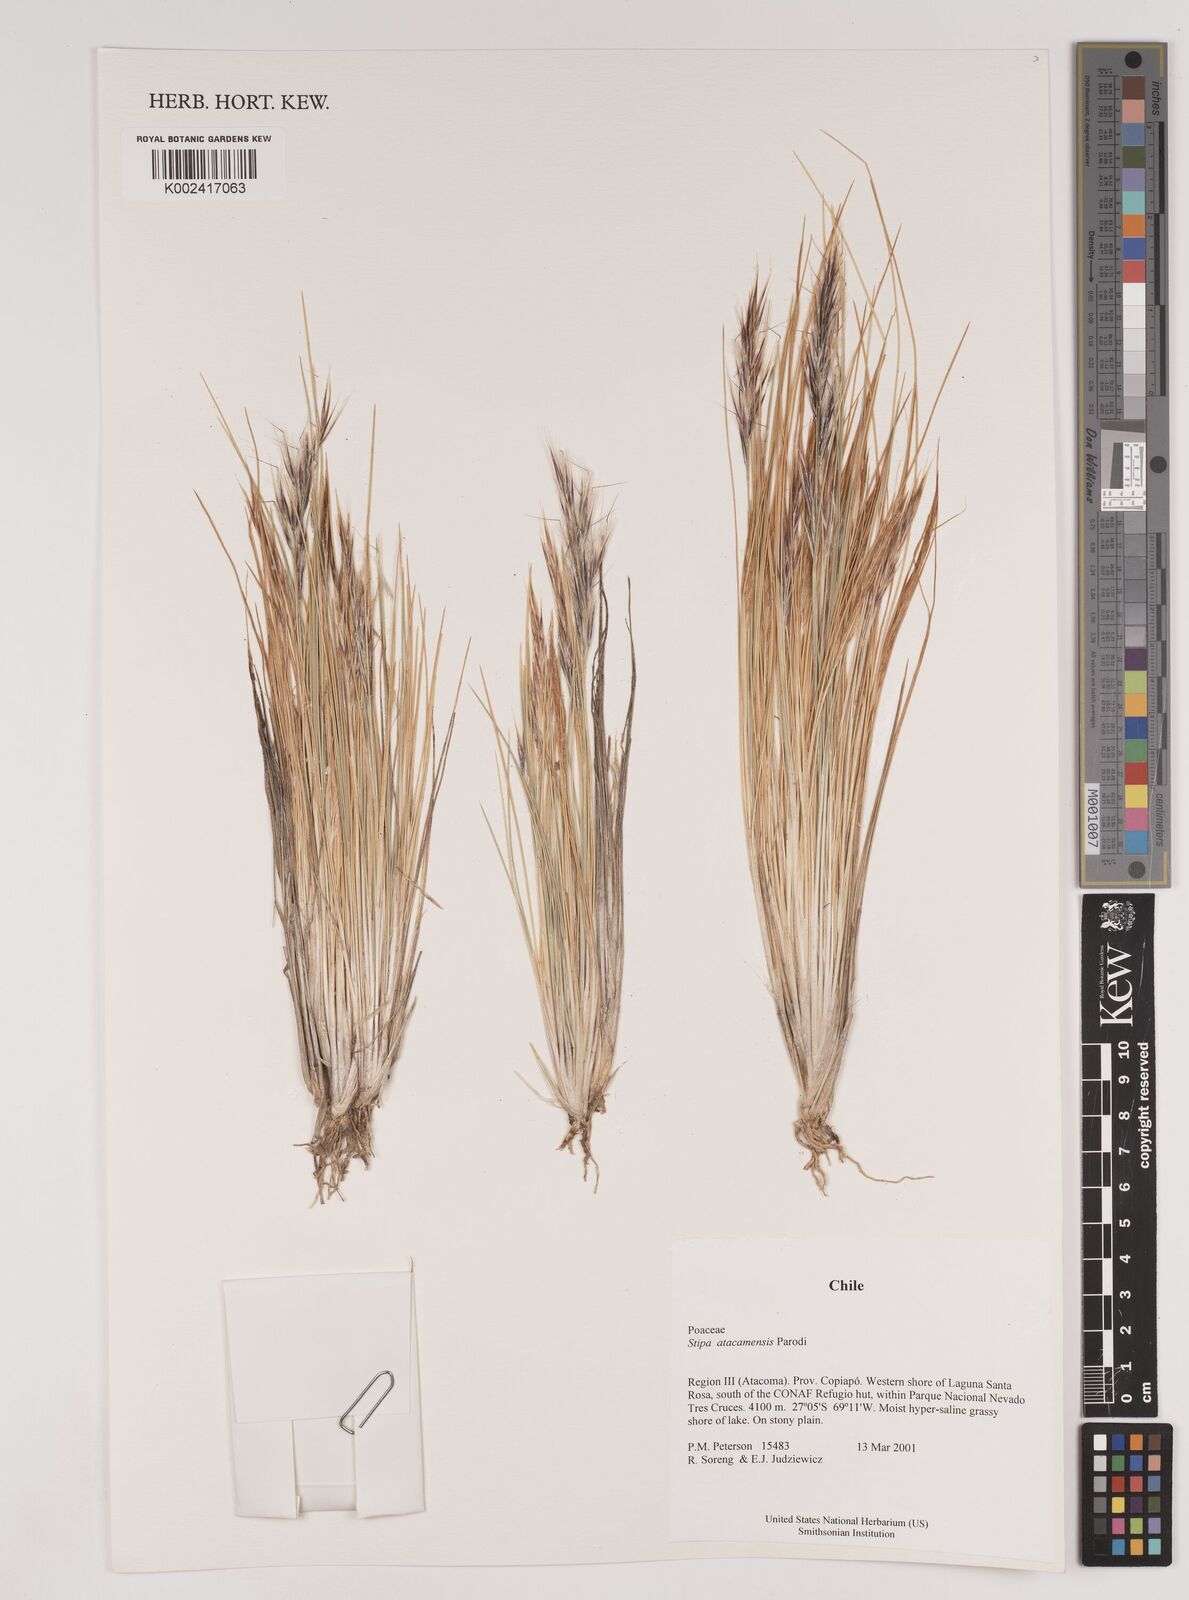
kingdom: Plantae
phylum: Tracheophyta
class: Liliopsida
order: Poales
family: Poaceae
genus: Pappostipa
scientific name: Pappostipa atacamensis
